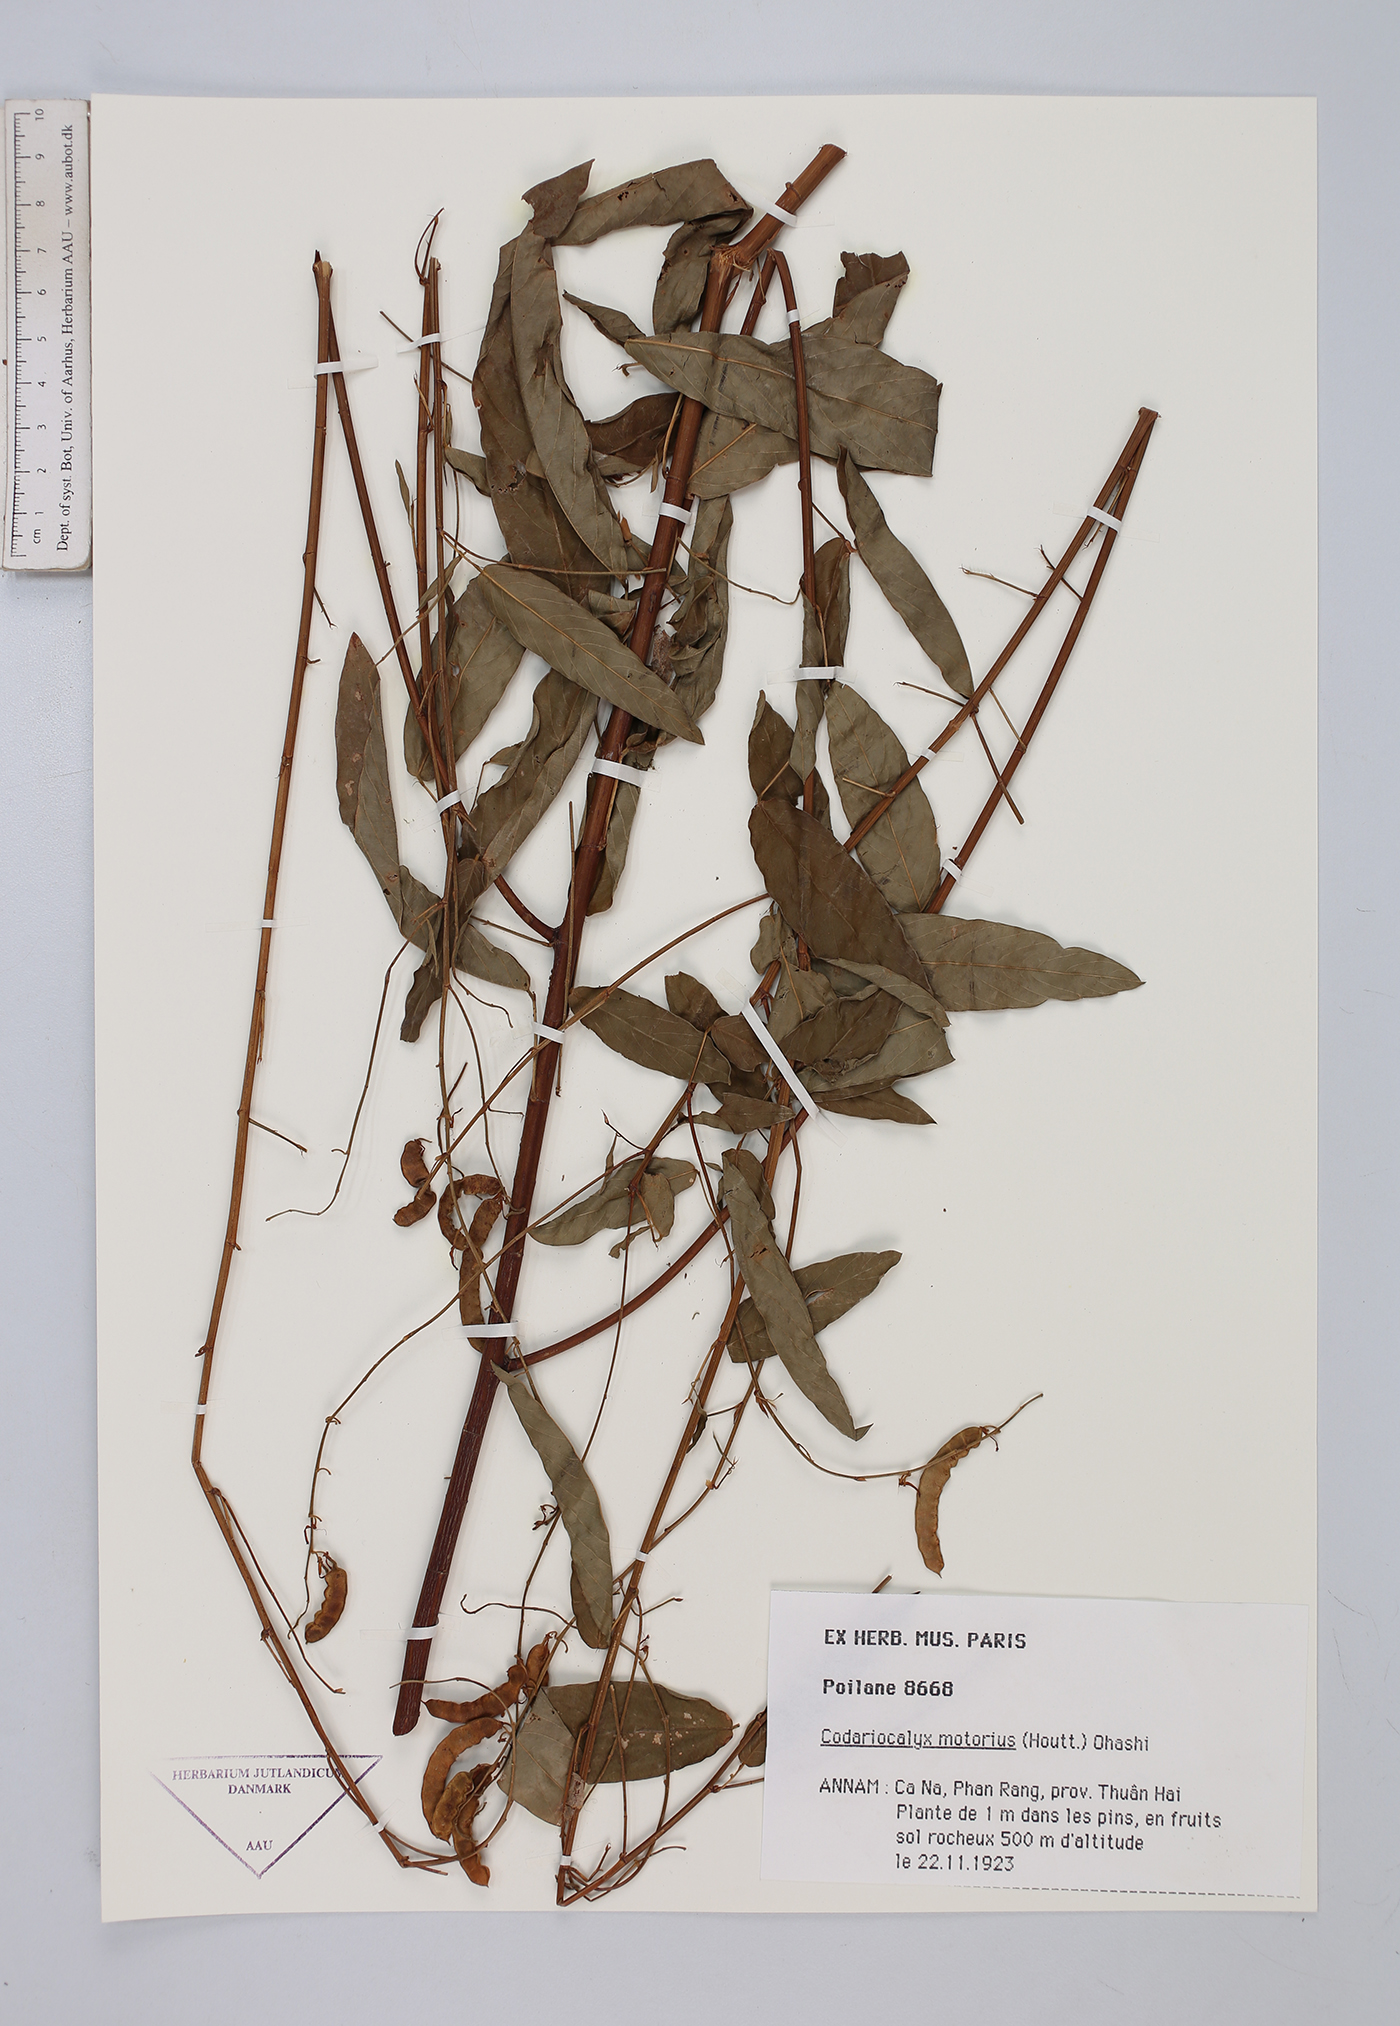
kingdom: Plantae
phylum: Tracheophyta
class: Magnoliopsida
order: Fabales
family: Fabaceae
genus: Codariocalyx
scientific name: Codariocalyx motorius
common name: Telegraph-plant
